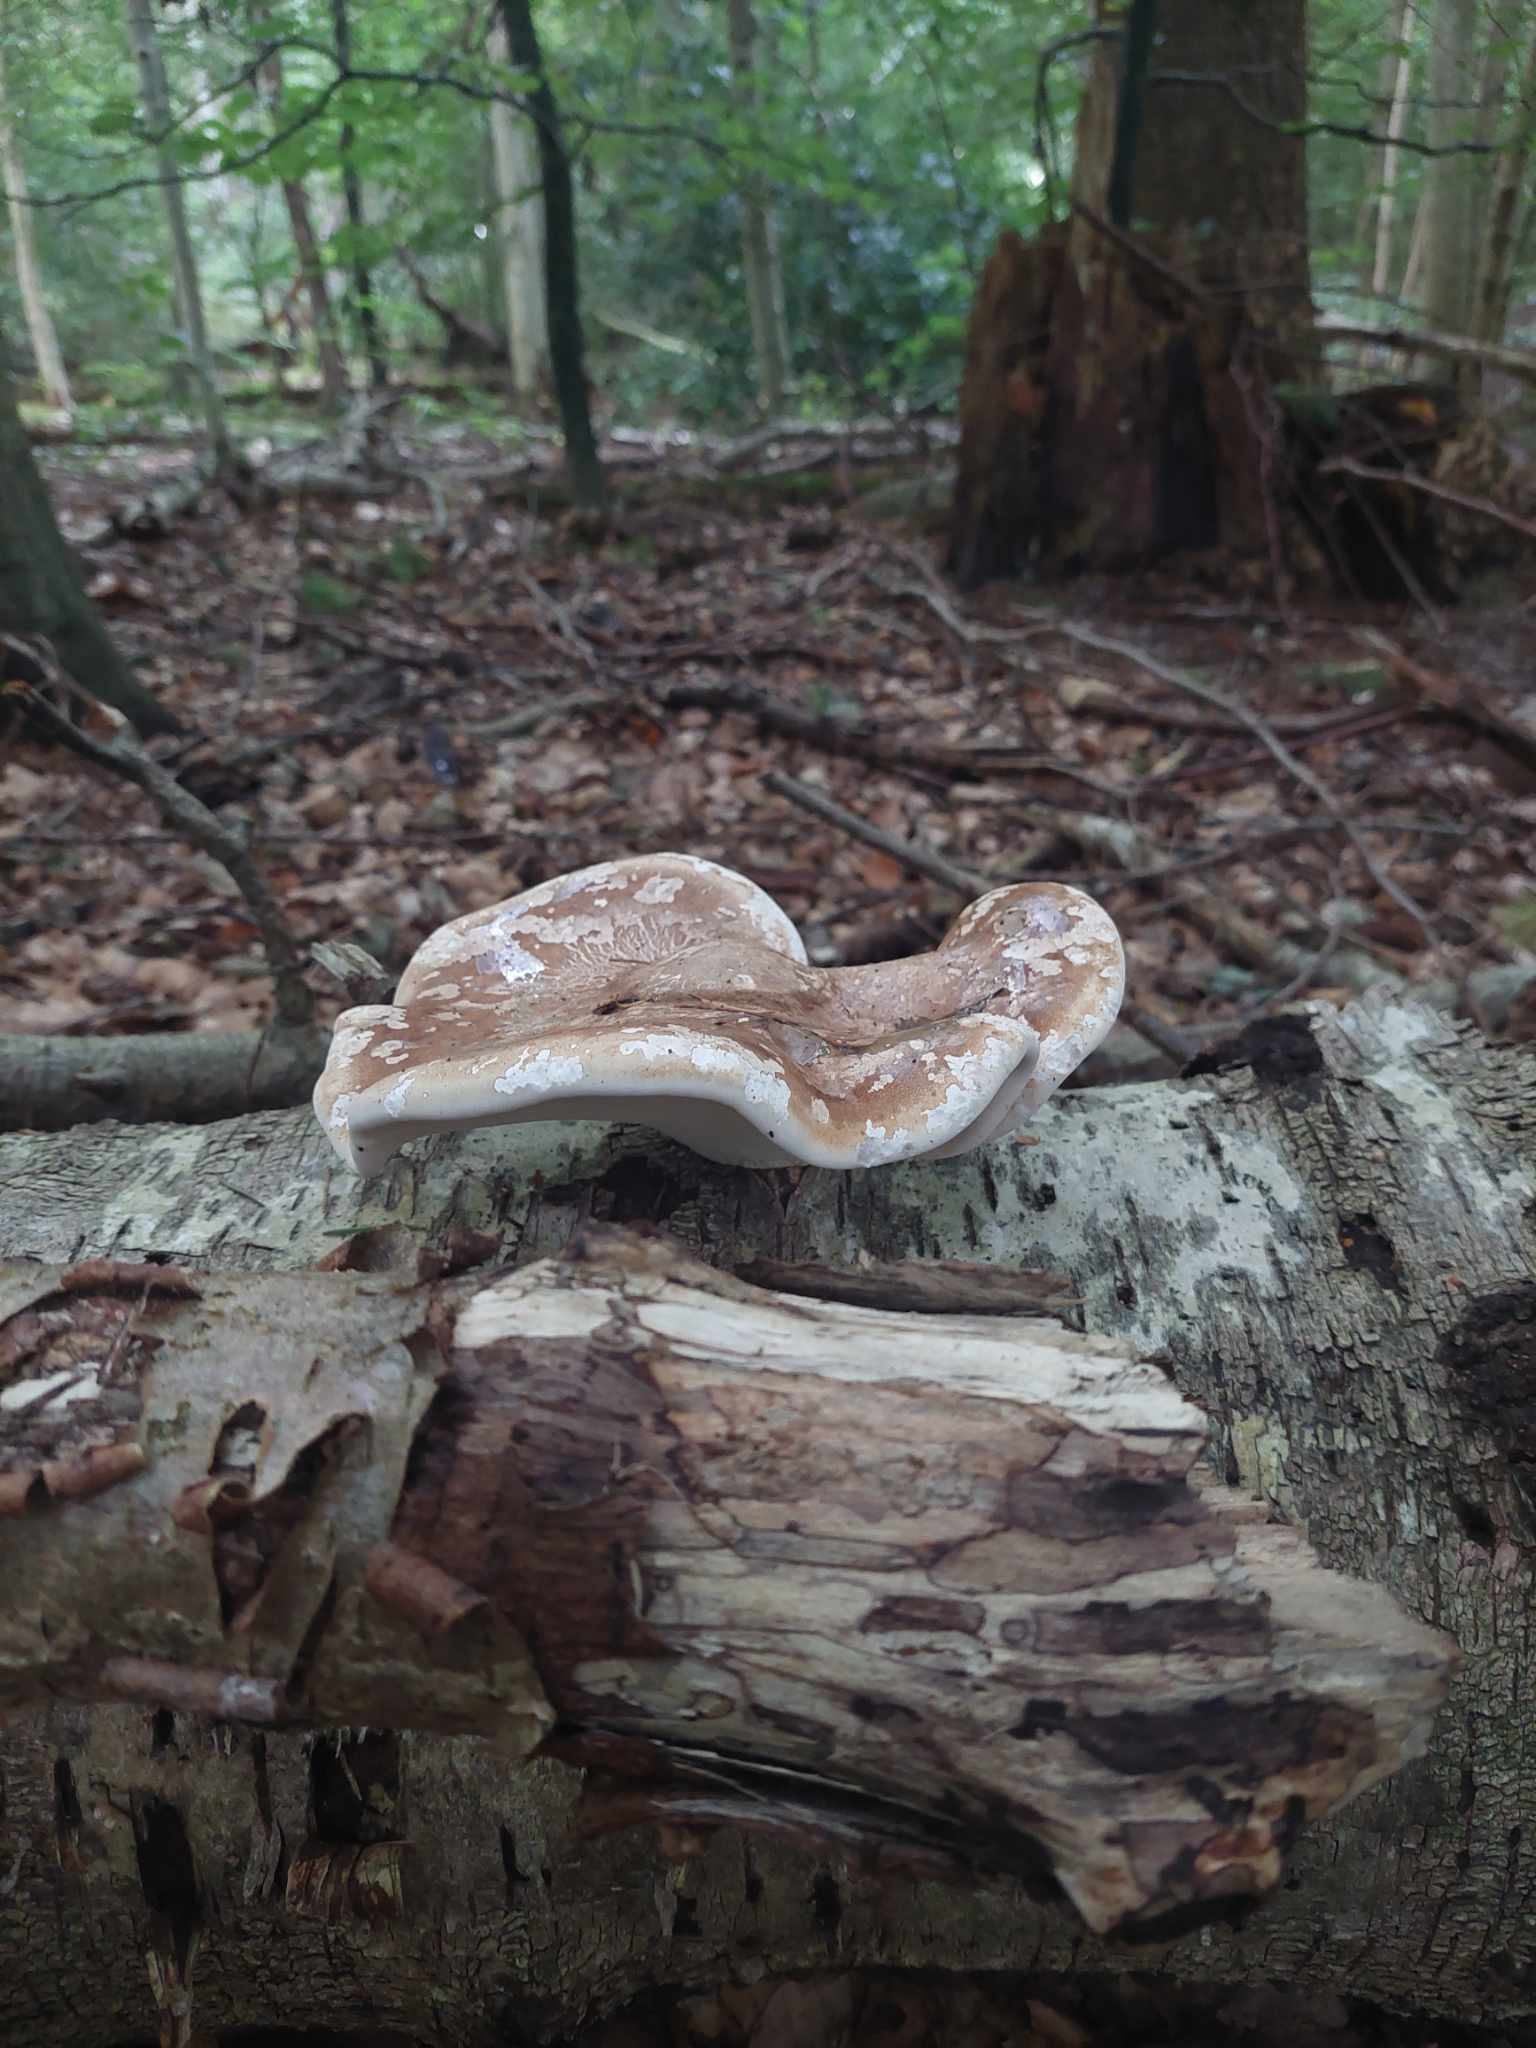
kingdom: Fungi
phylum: Basidiomycota
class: Agaricomycetes
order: Polyporales
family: Fomitopsidaceae
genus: Fomitopsis
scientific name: Fomitopsis betulina
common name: birkeporesvamp
